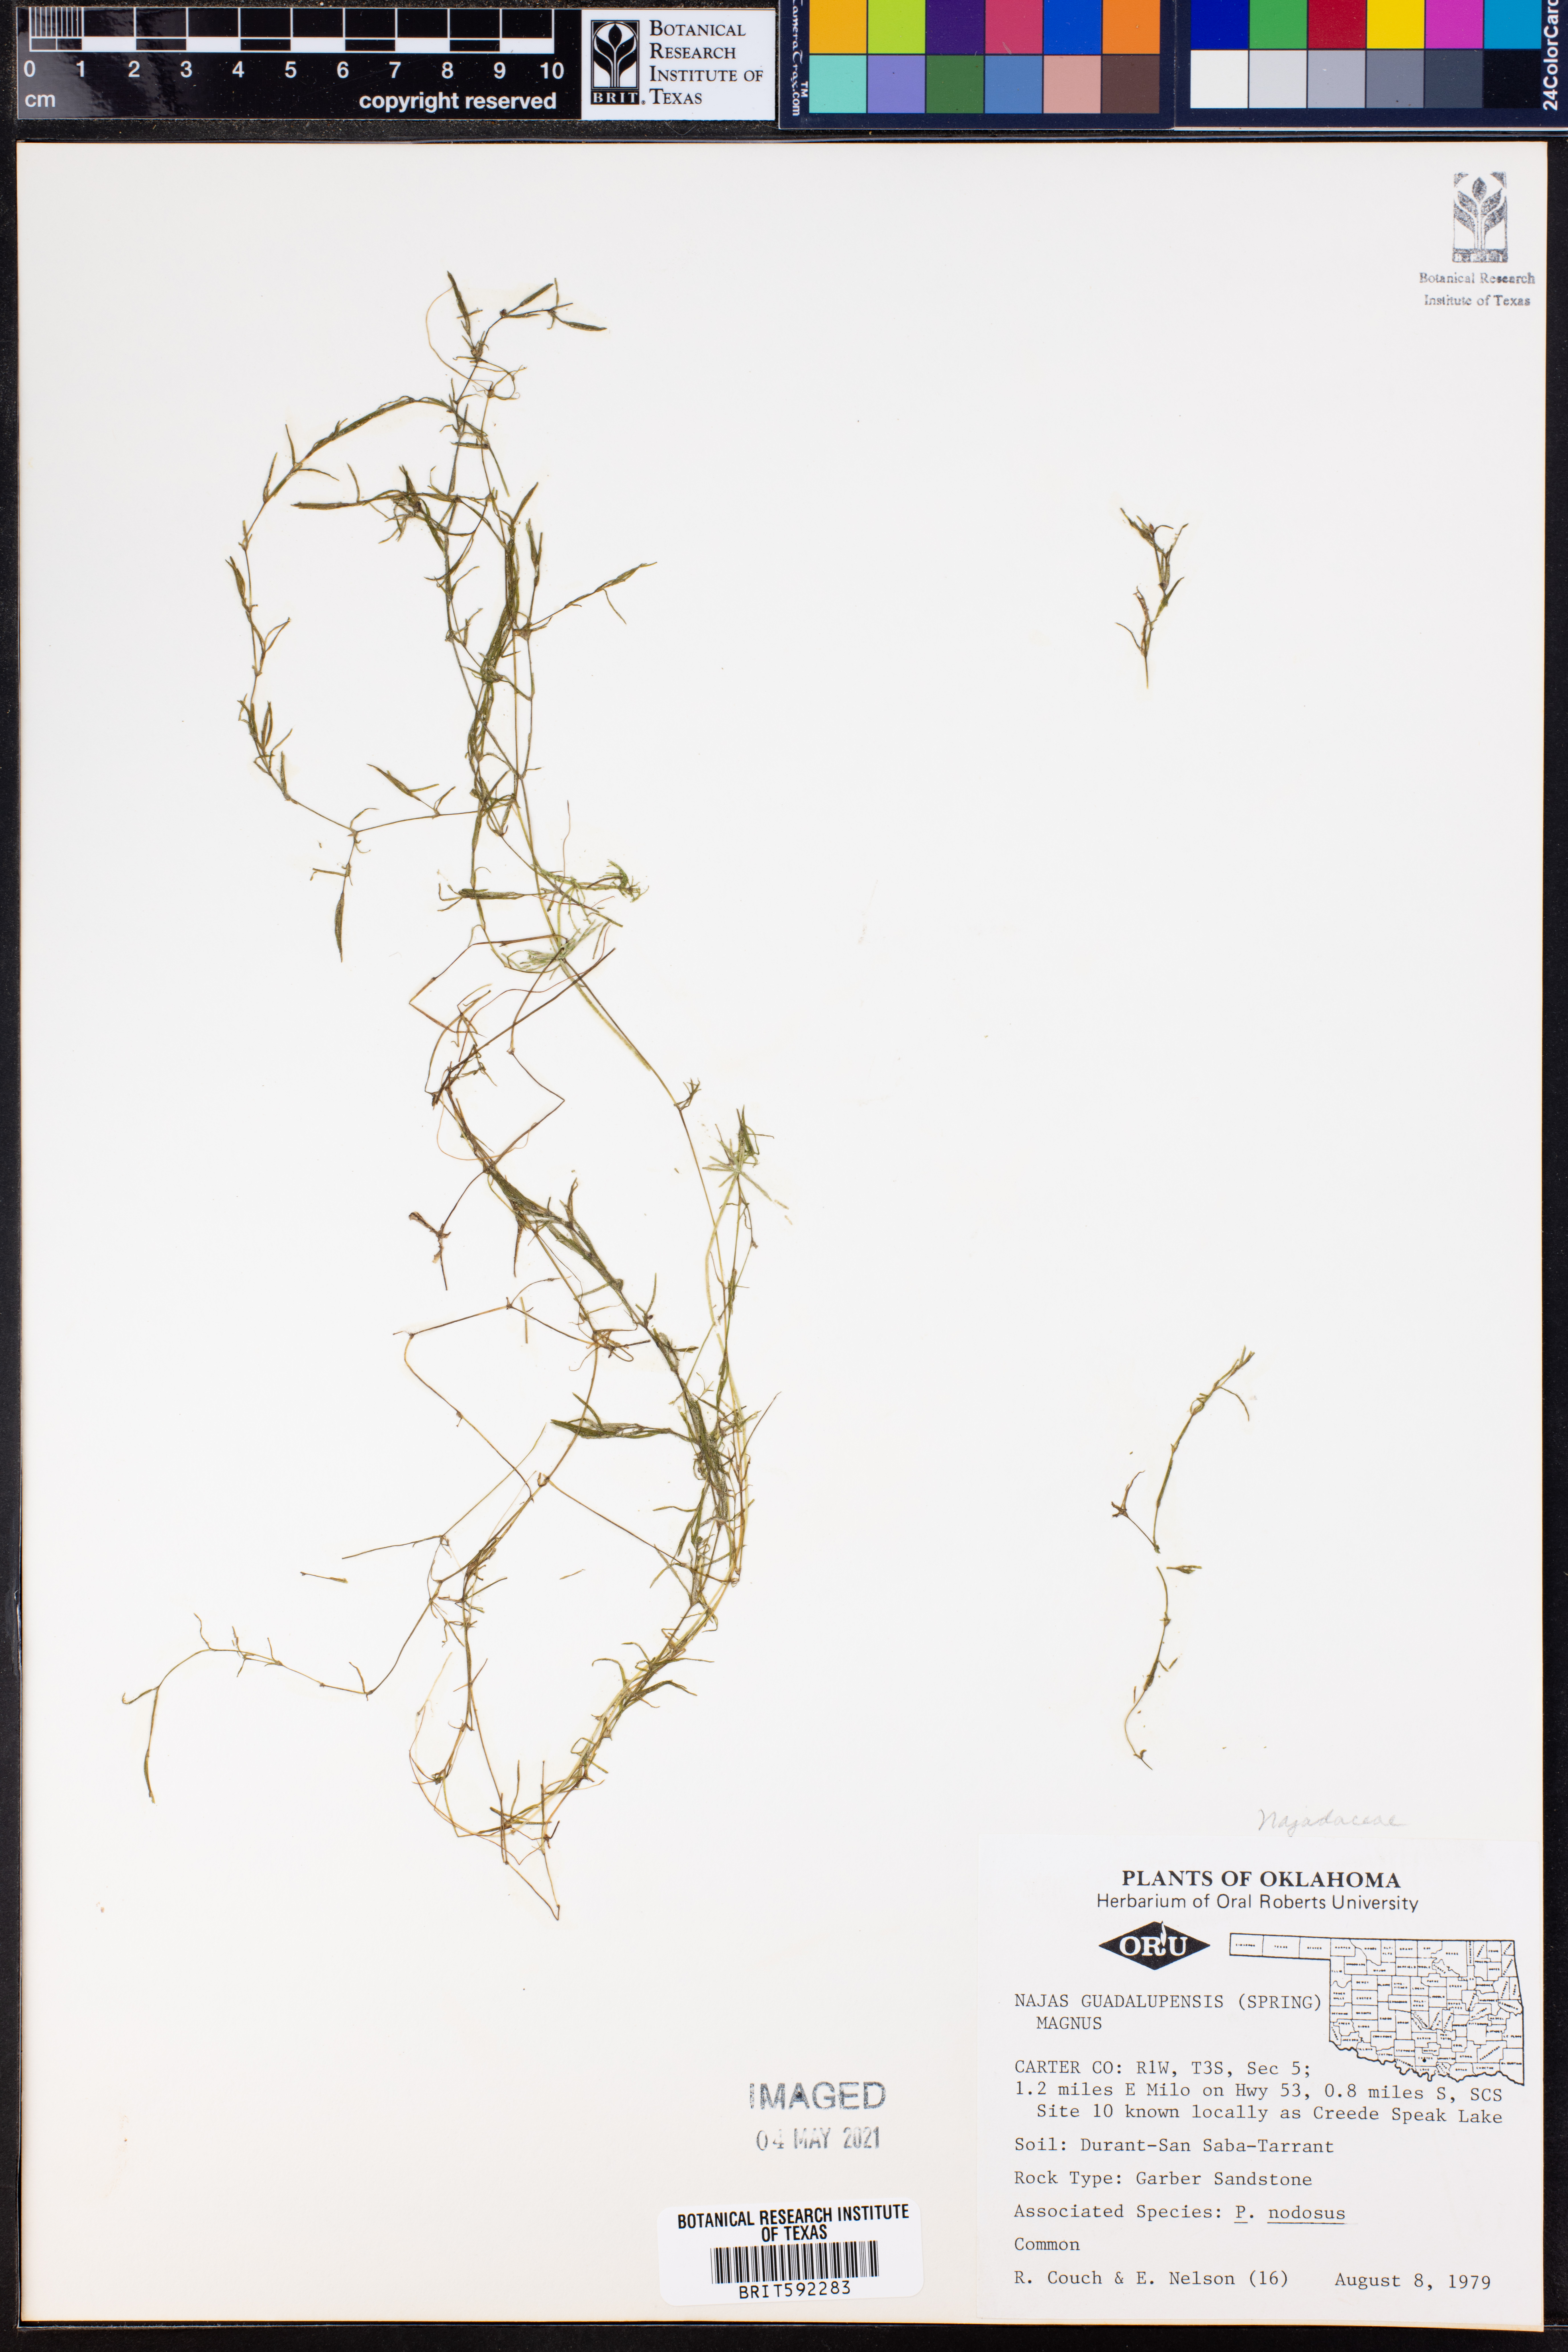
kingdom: Plantae
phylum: Tracheophyta
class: Liliopsida
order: Alismatales
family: Hydrocharitaceae
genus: Najas
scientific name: Najas guadalupensis
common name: Southern naiad
